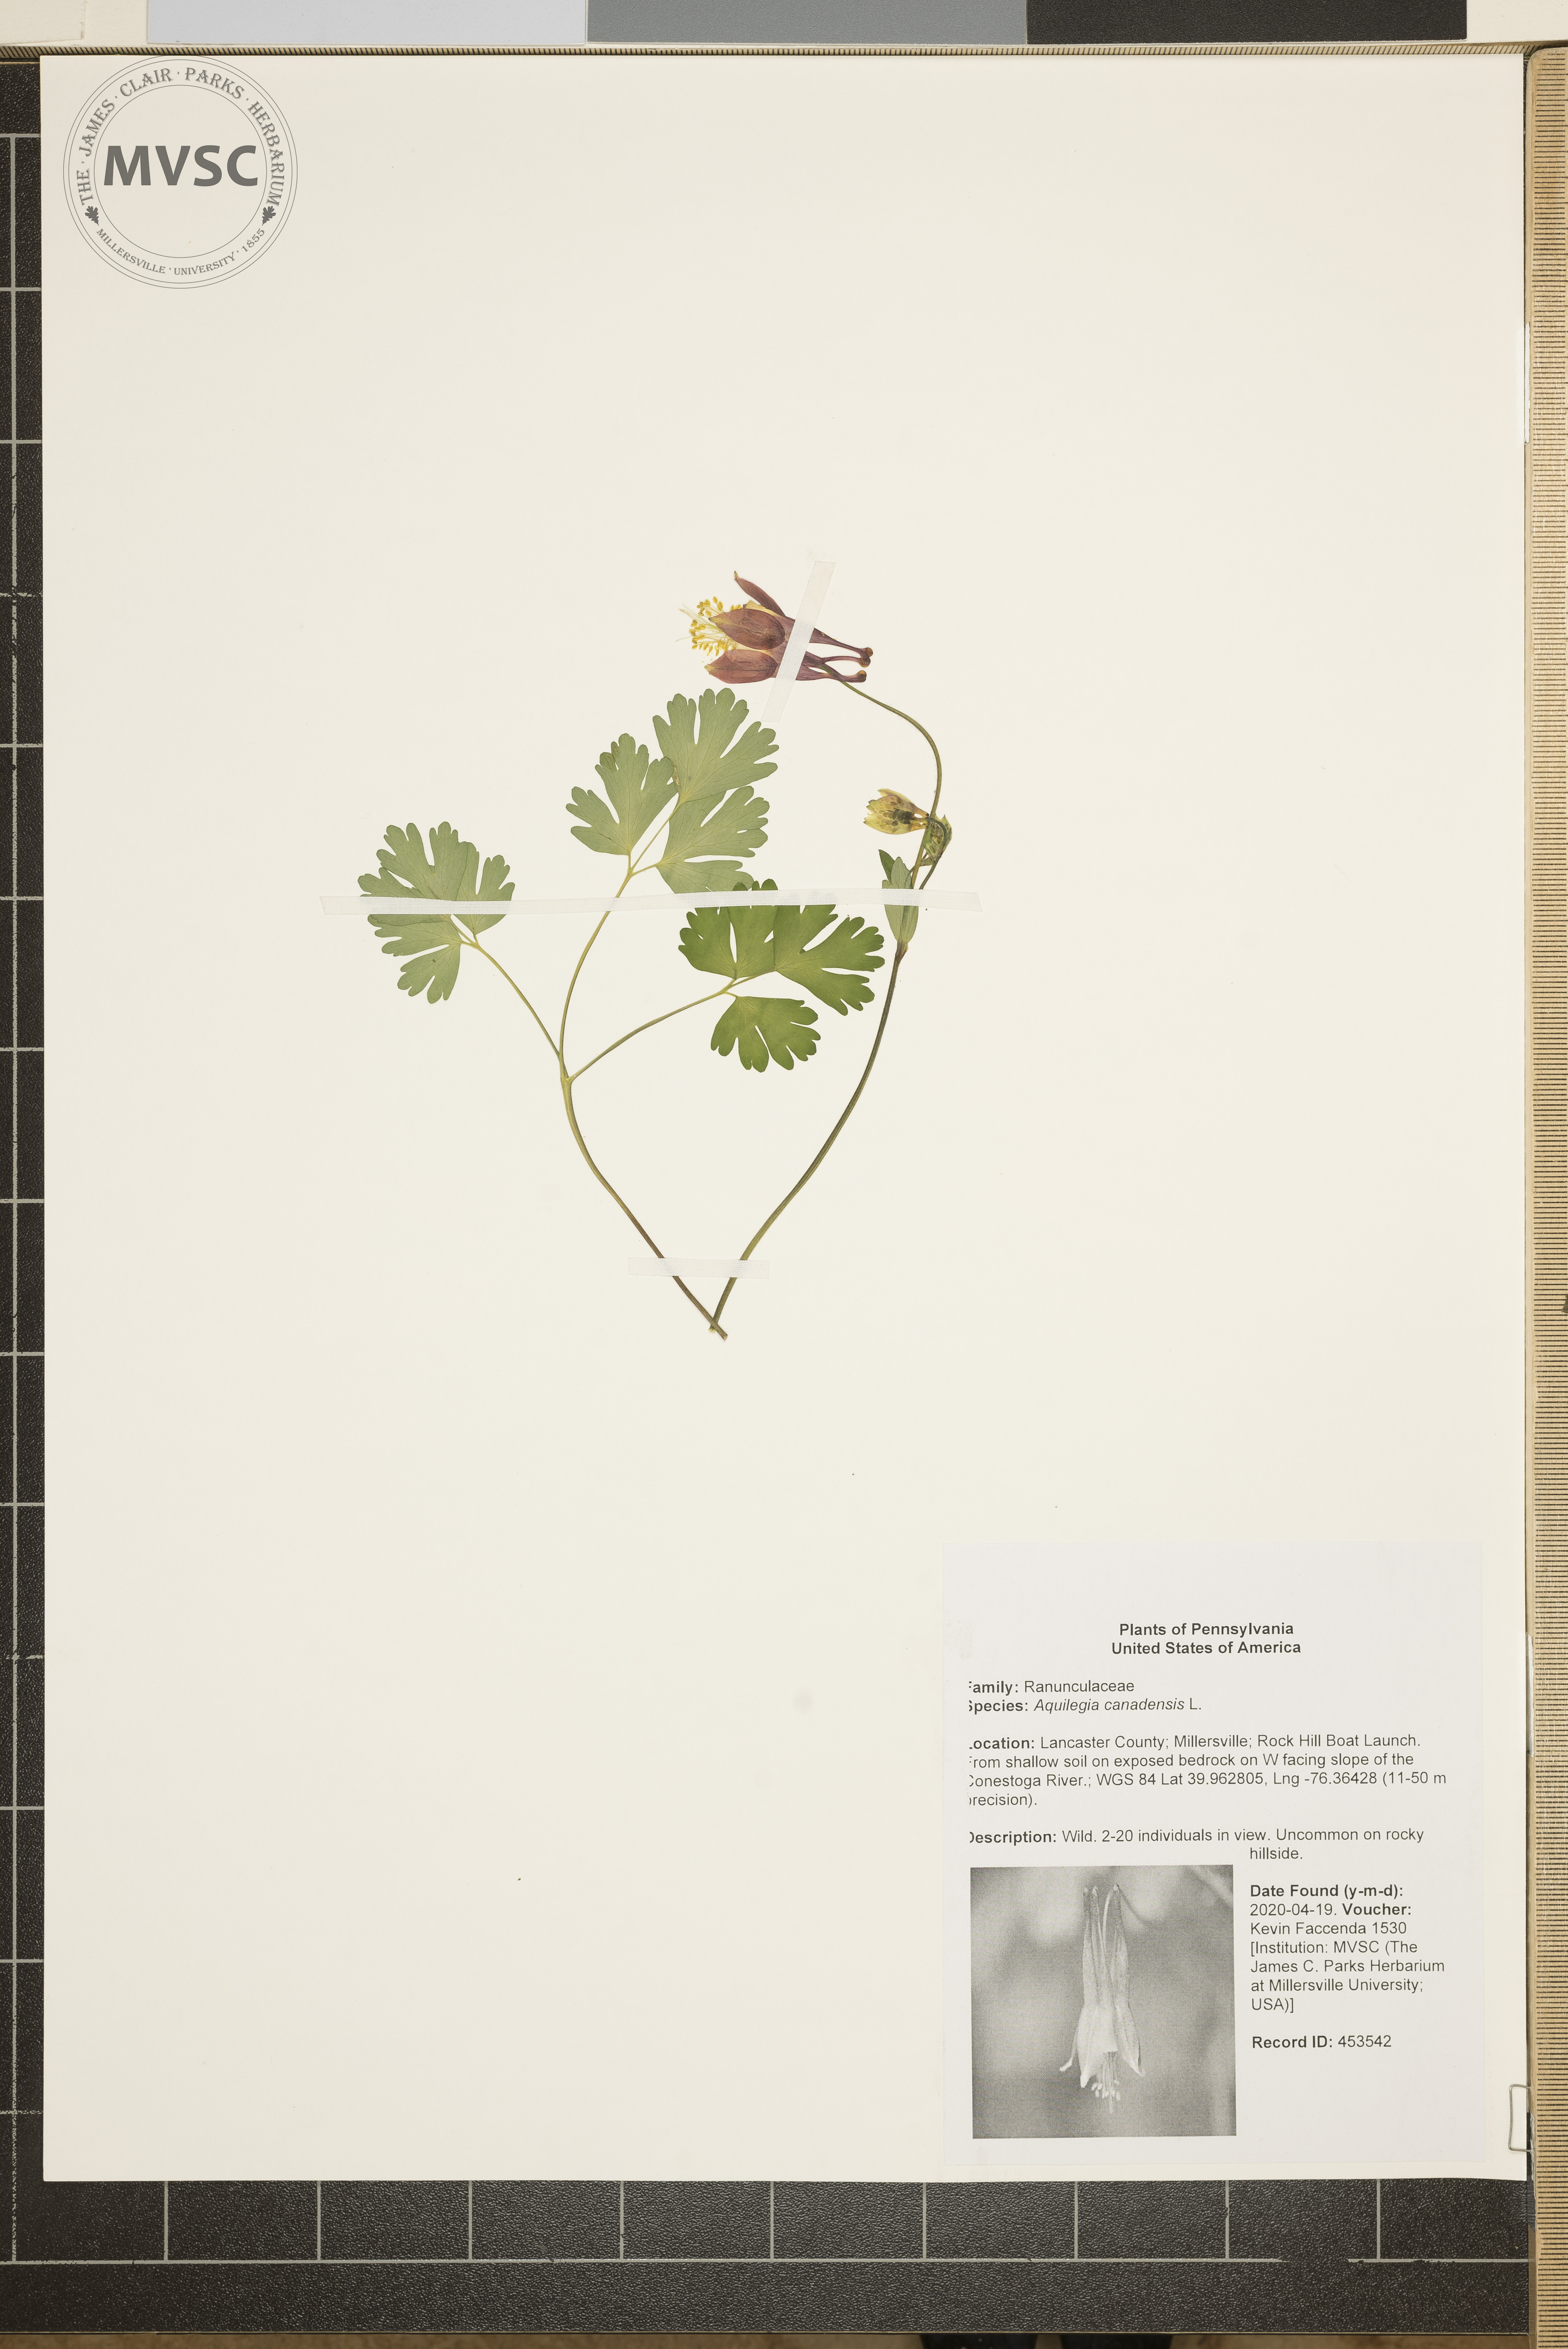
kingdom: Plantae
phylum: Tracheophyta
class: Magnoliopsida
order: Ranunculales
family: Ranunculaceae
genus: Aquilegia
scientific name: Aquilegia canadensis
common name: American columbine
